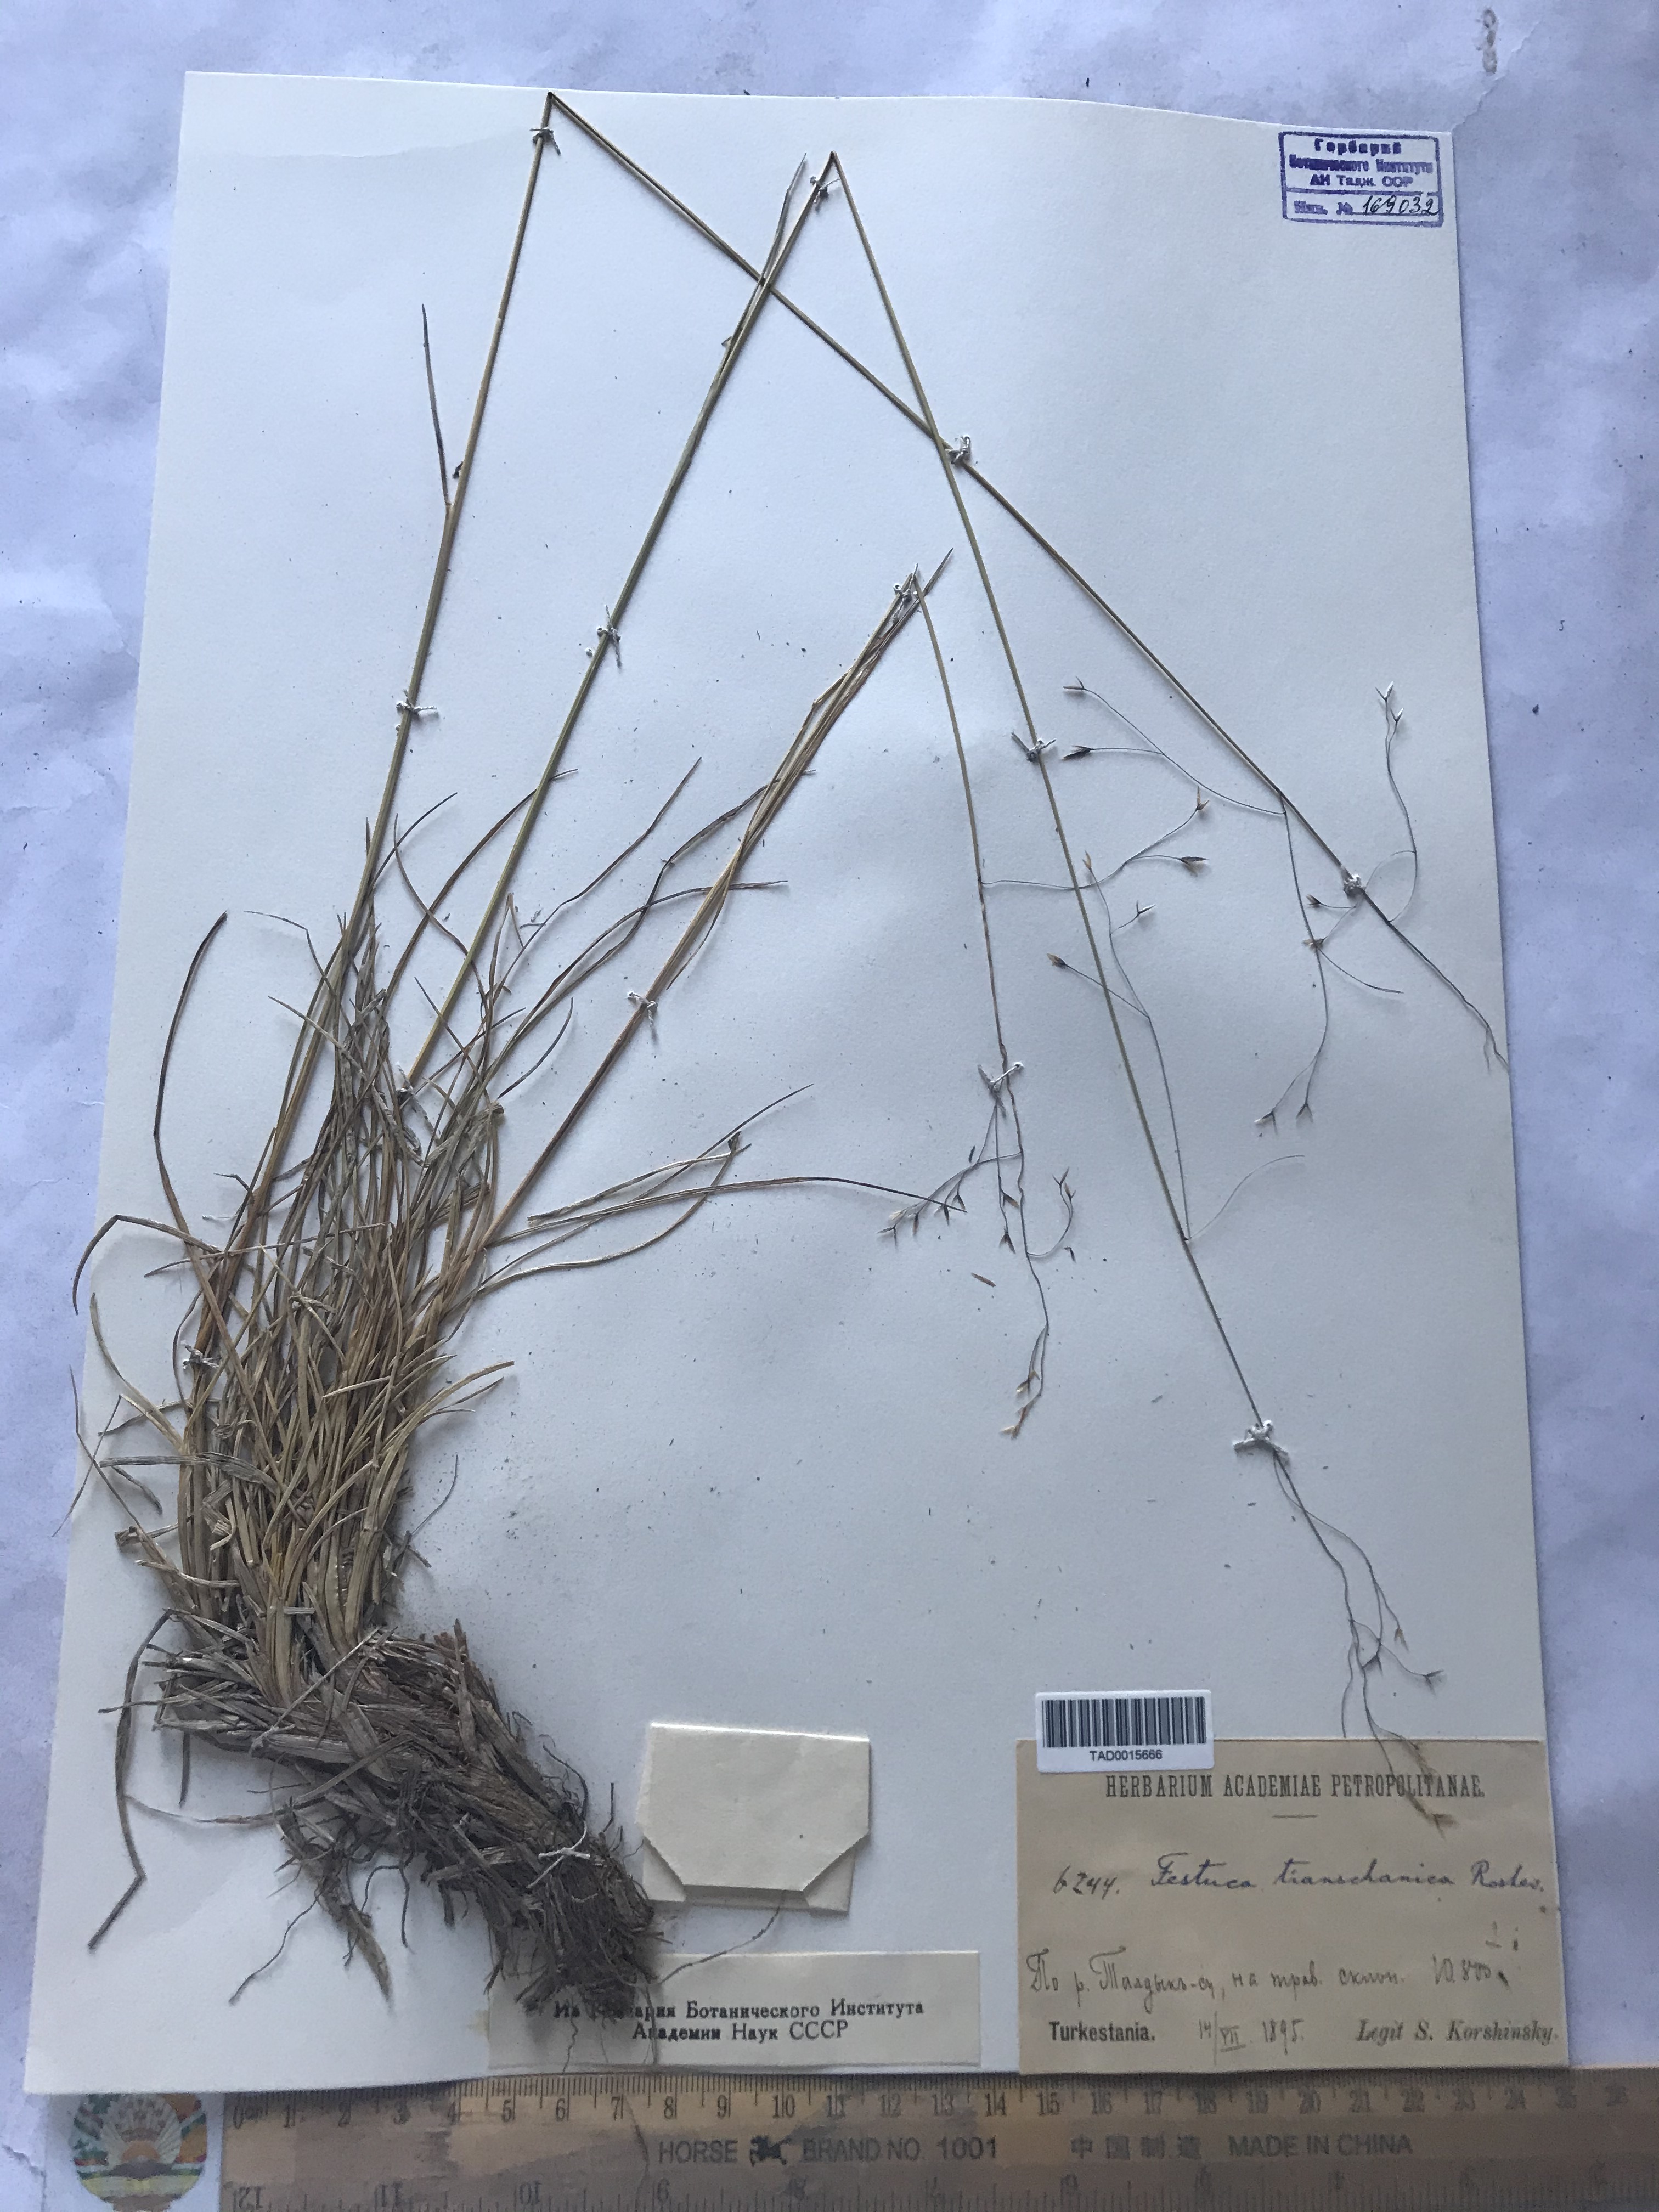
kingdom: Plantae
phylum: Tracheophyta
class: Liliopsida
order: Poales
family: Poaceae
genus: Festuca
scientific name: Festuca alatavica
